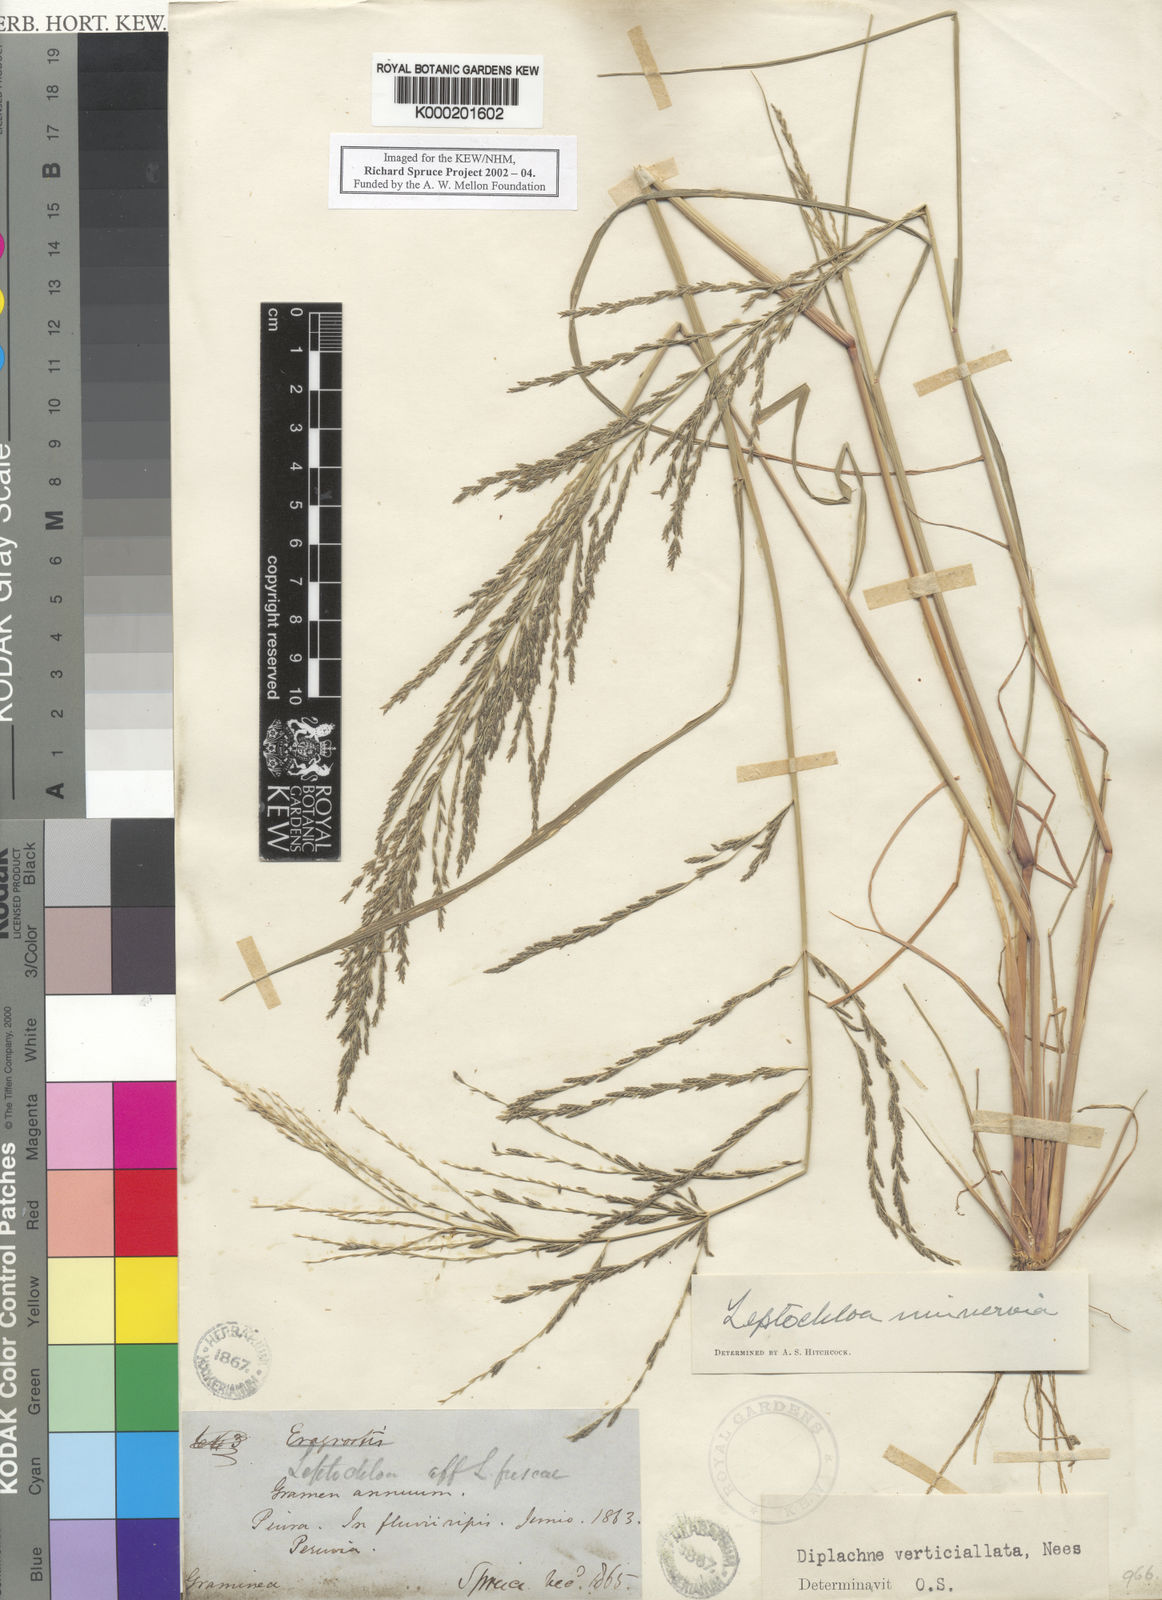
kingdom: Plantae
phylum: Tracheophyta
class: Liliopsida
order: Poales
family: Poaceae
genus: Diplachne
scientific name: Diplachne fusca
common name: Brown beetle grass
